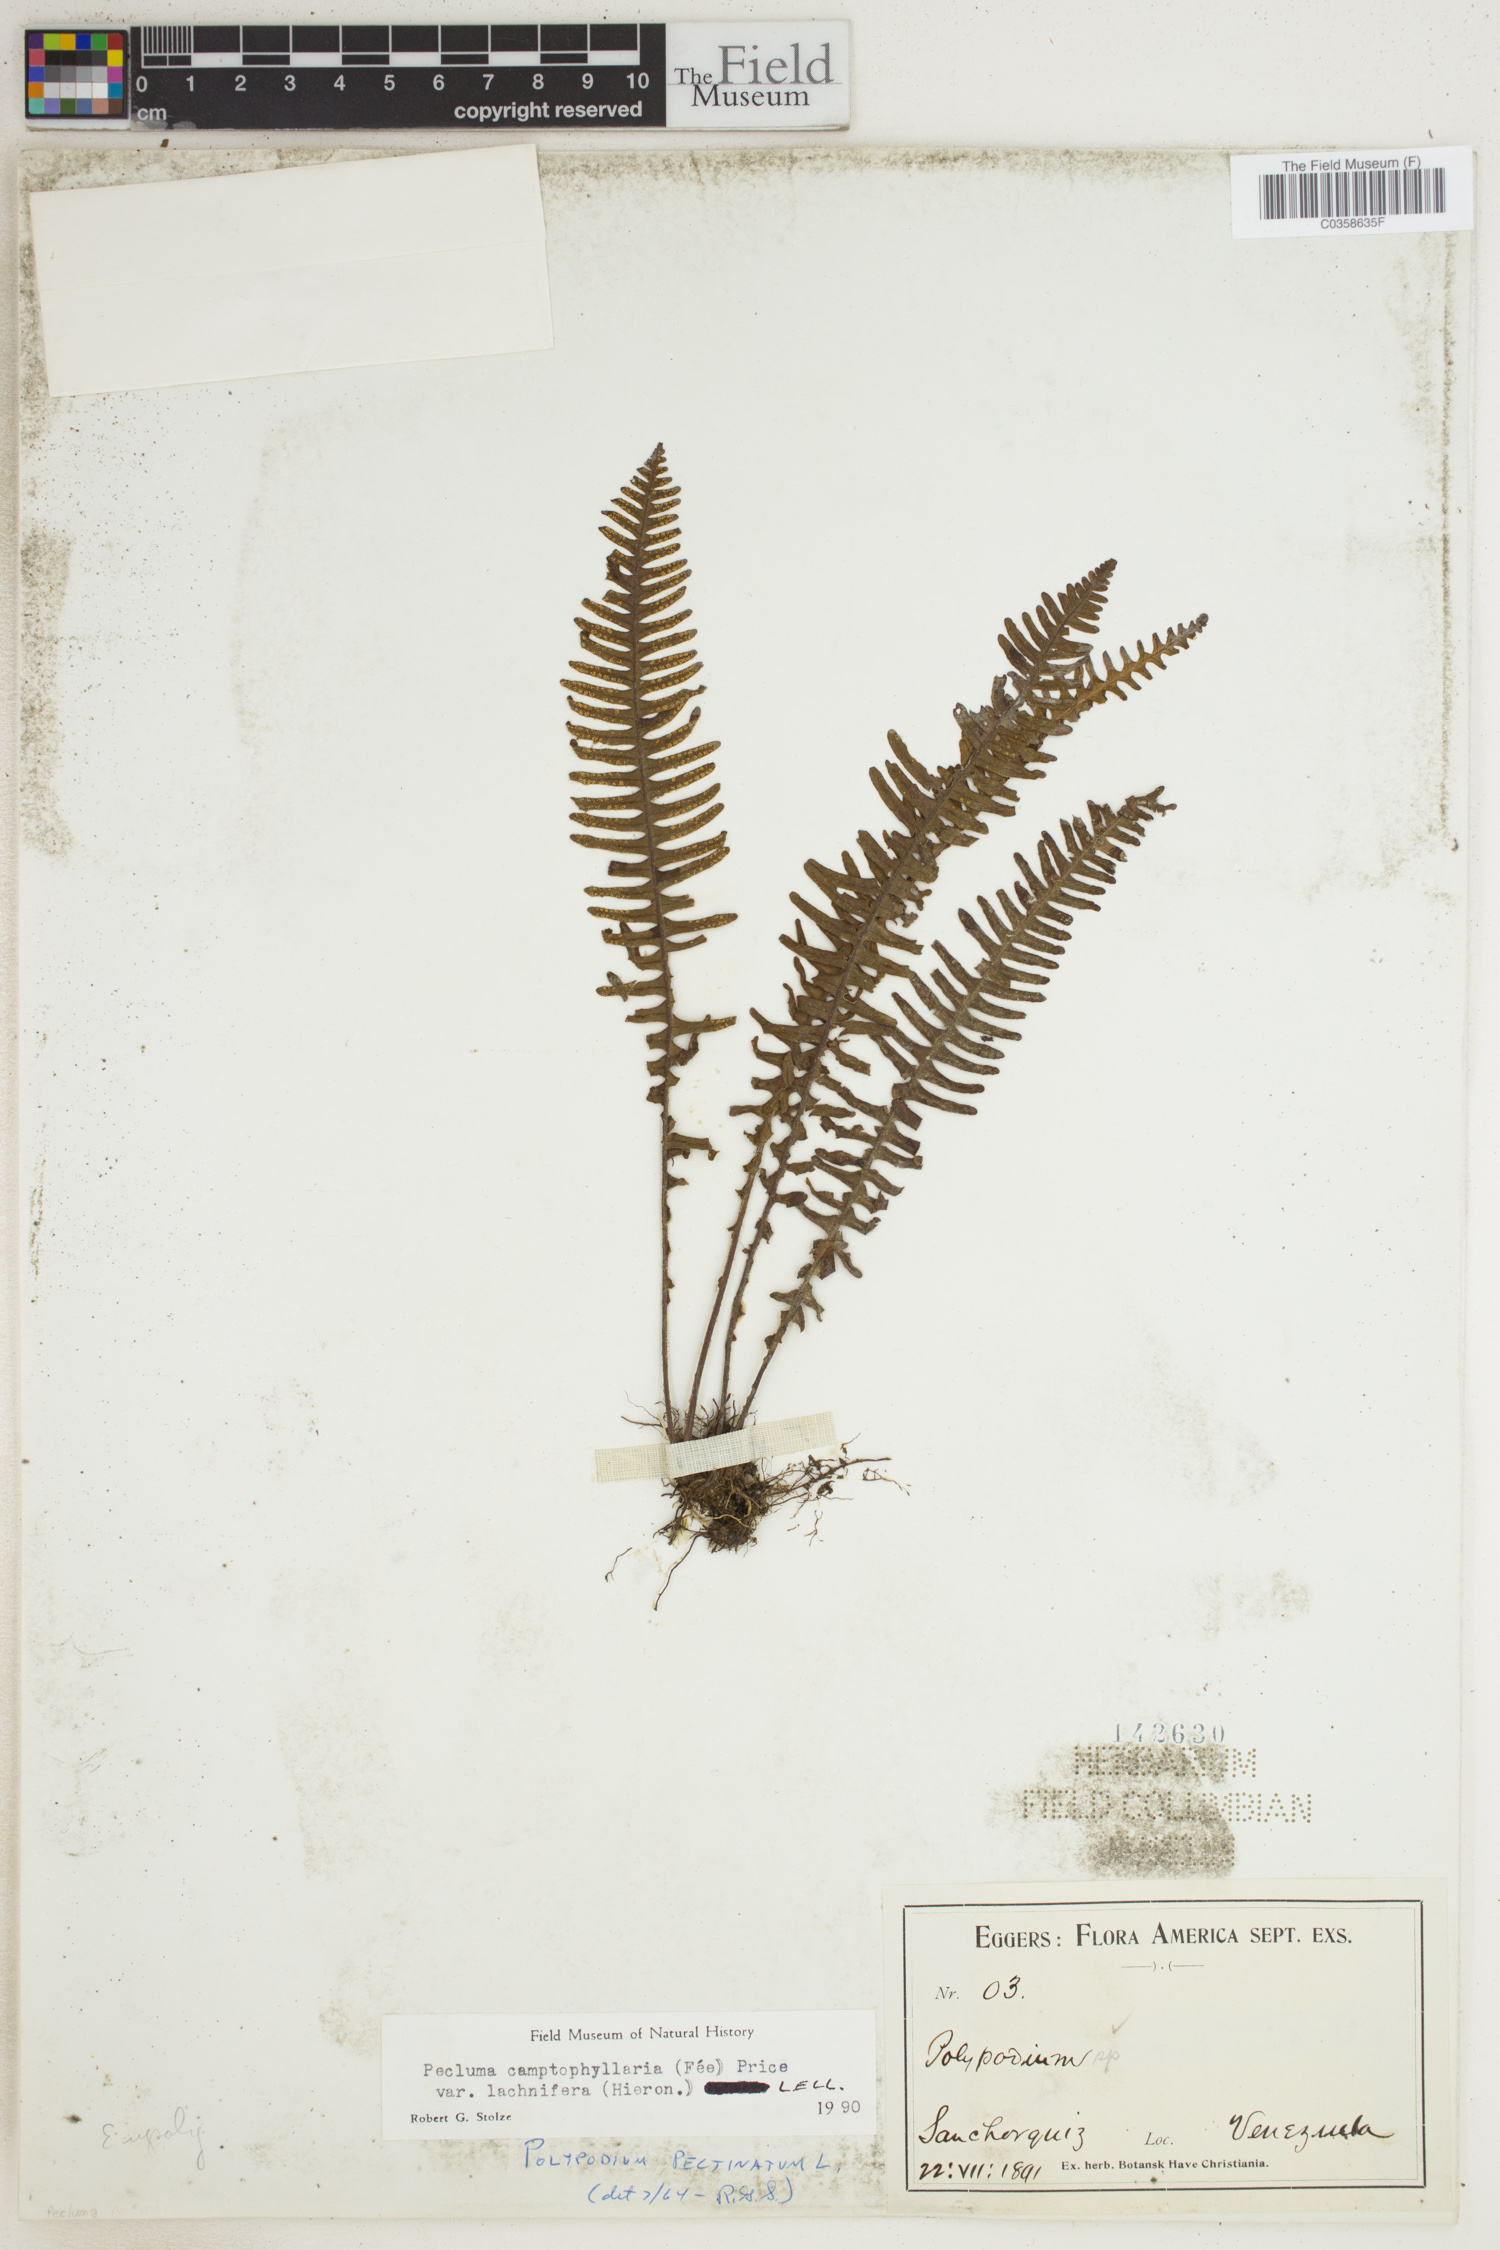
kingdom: Plantae
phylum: Tracheophyta
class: Polypodiopsida
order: Polypodiales
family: Polypodiaceae
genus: Pecluma
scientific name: Pecluma camptophyllaria
